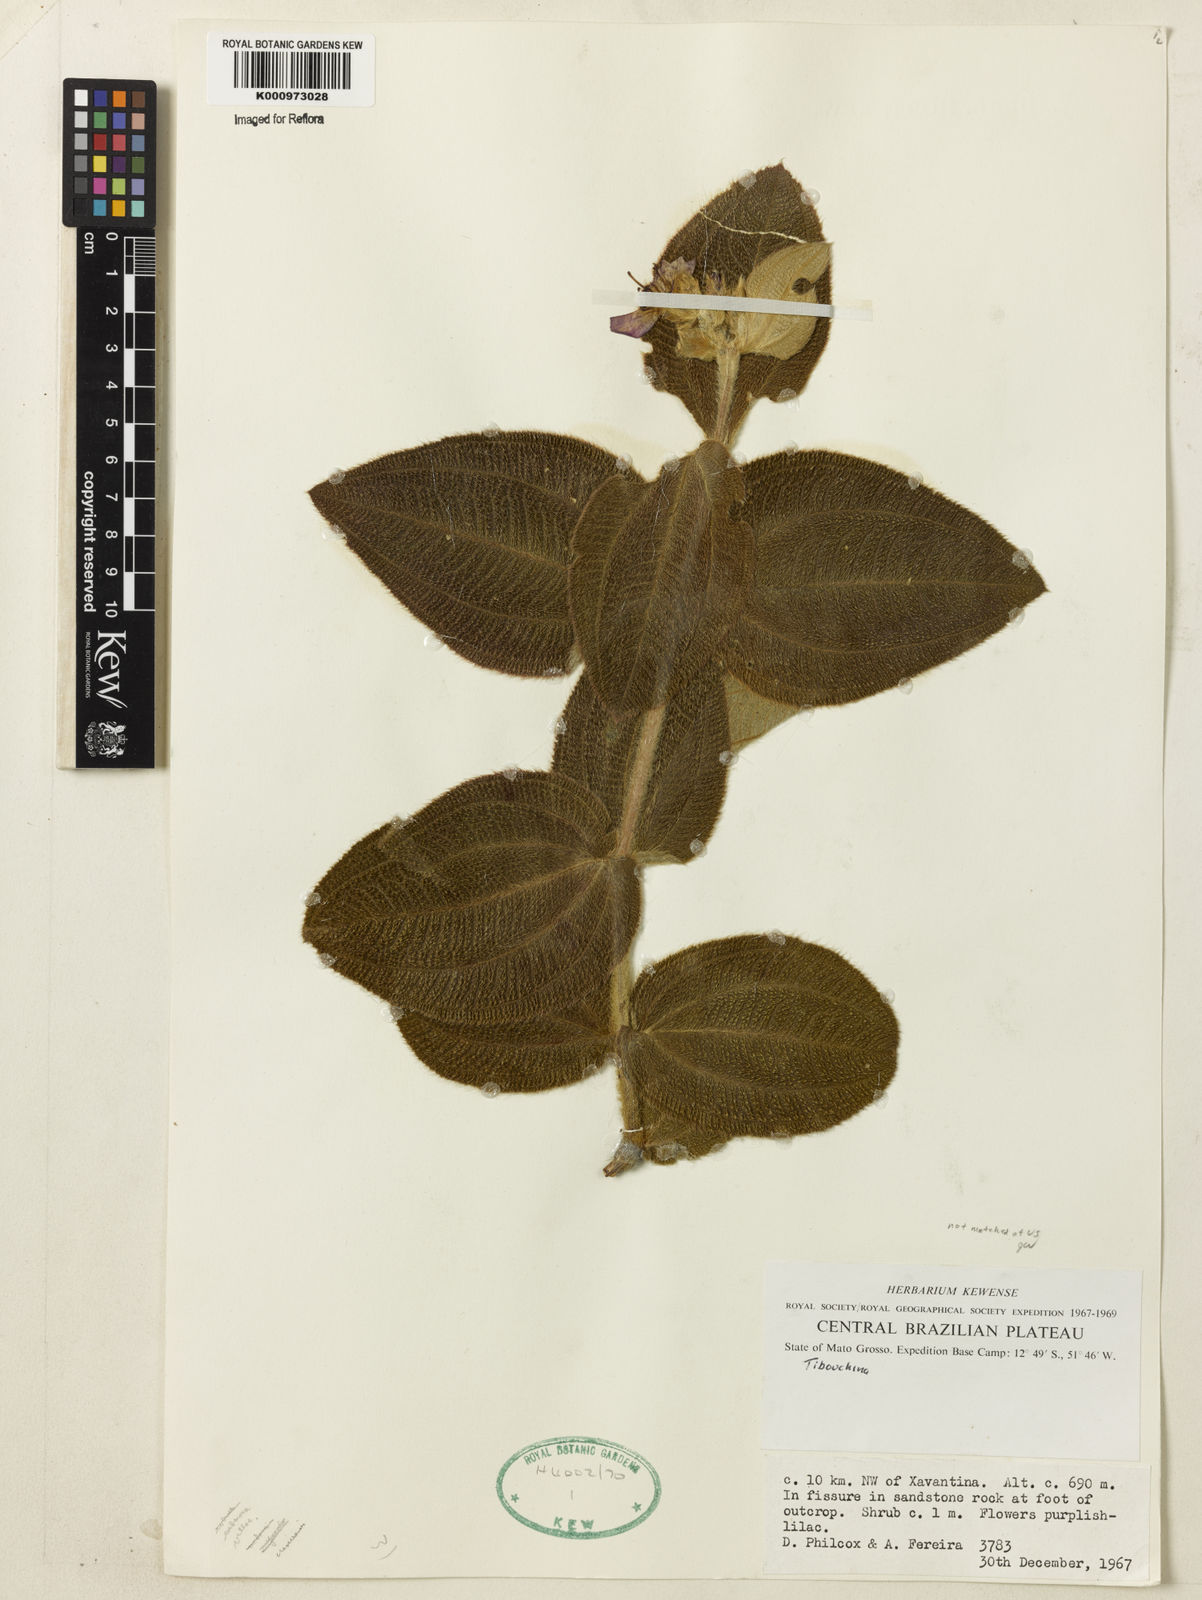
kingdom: Plantae
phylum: Tracheophyta
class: Magnoliopsida
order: Myrtales
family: Melastomataceae
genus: Tibouchina
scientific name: Tibouchina
